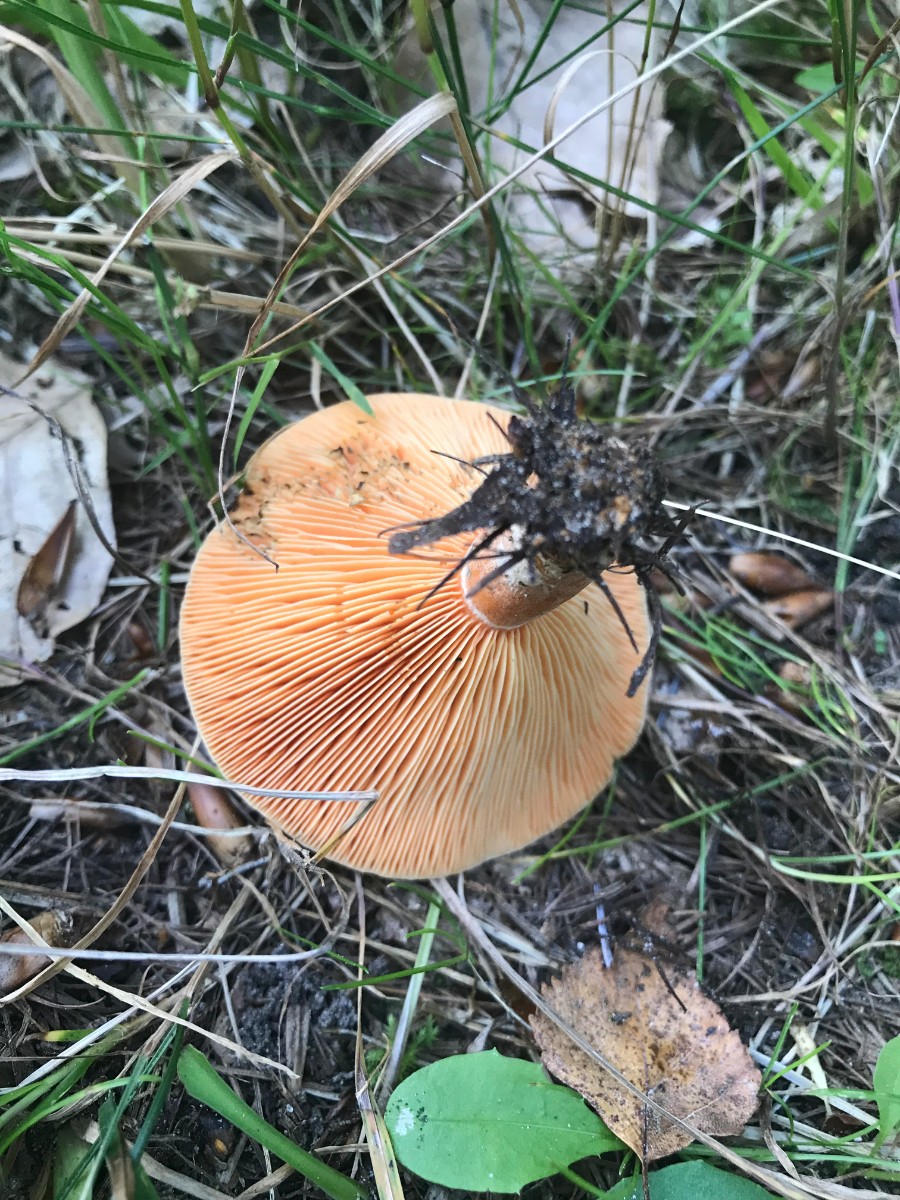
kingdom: Fungi
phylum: Basidiomycota
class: Agaricomycetes
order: Russulales
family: Russulaceae
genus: Lactarius
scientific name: Lactarius deterrimus
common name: gran-mælkehat
